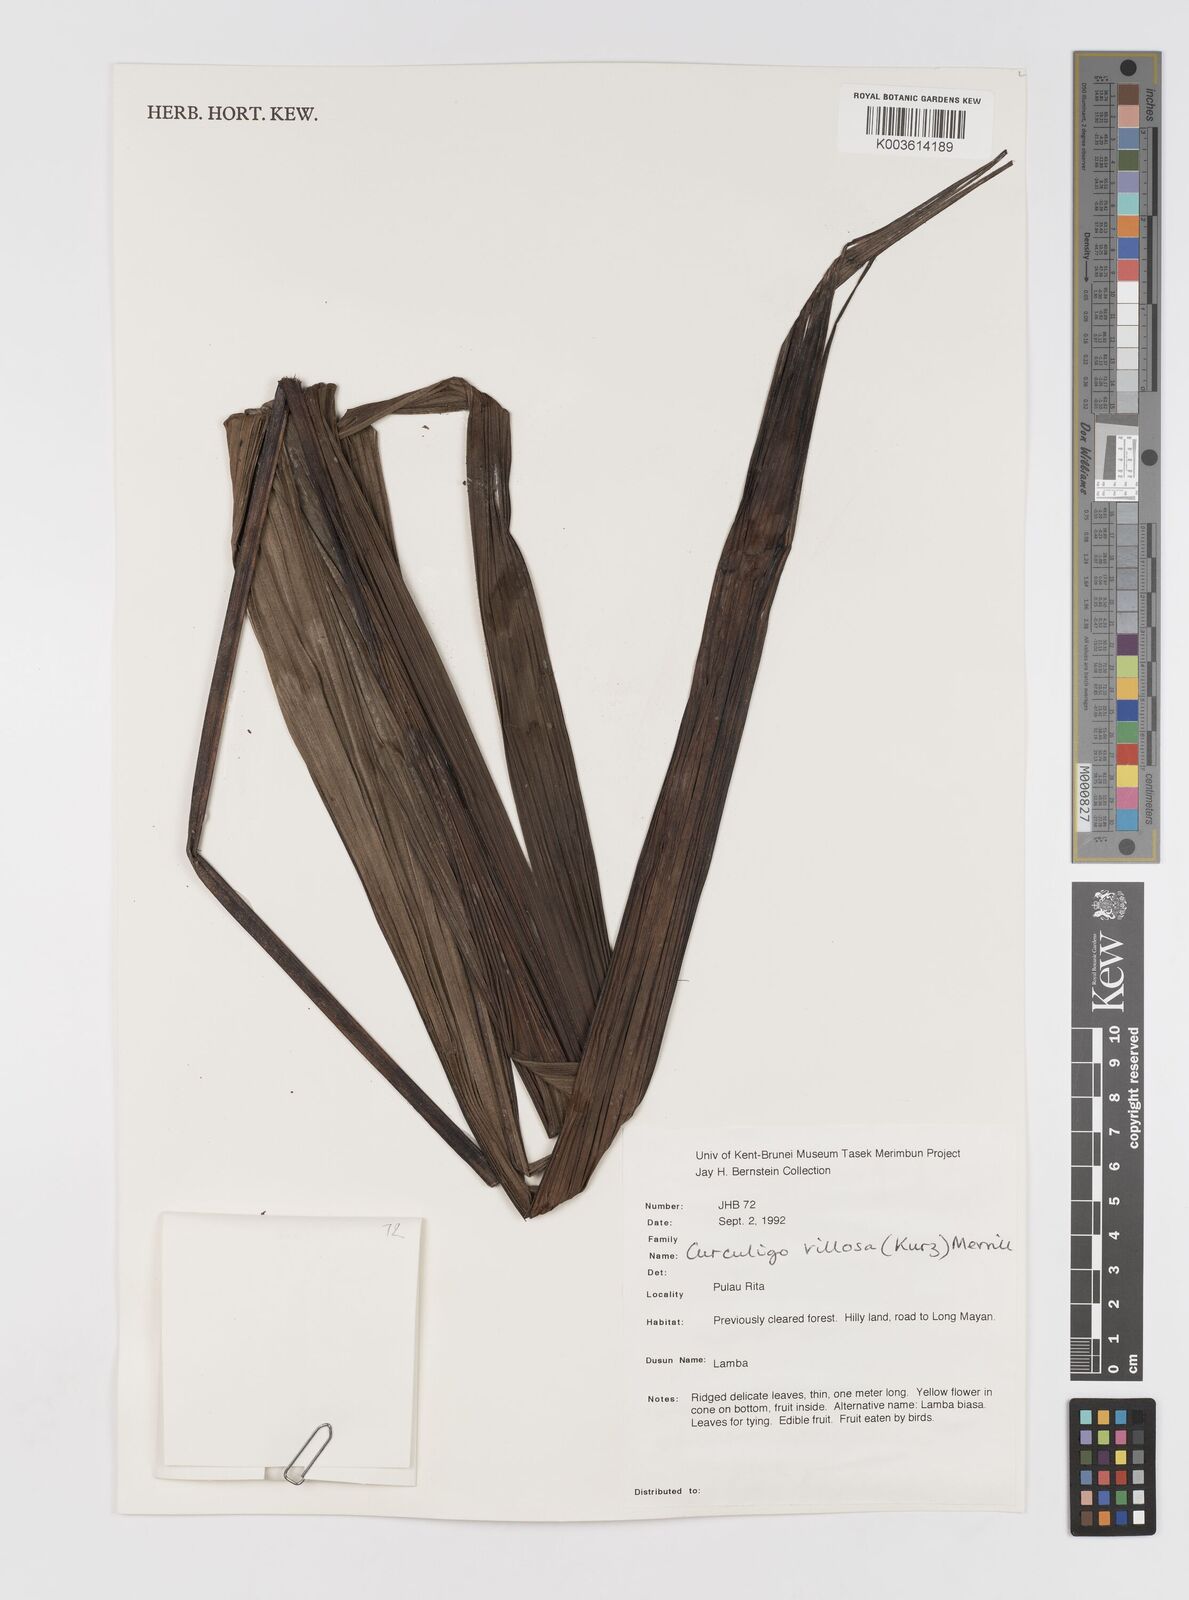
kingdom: Plantae
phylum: Tracheophyta
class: Liliopsida
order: Asparagales
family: Hypoxidaceae
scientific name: Hypoxidaceae
